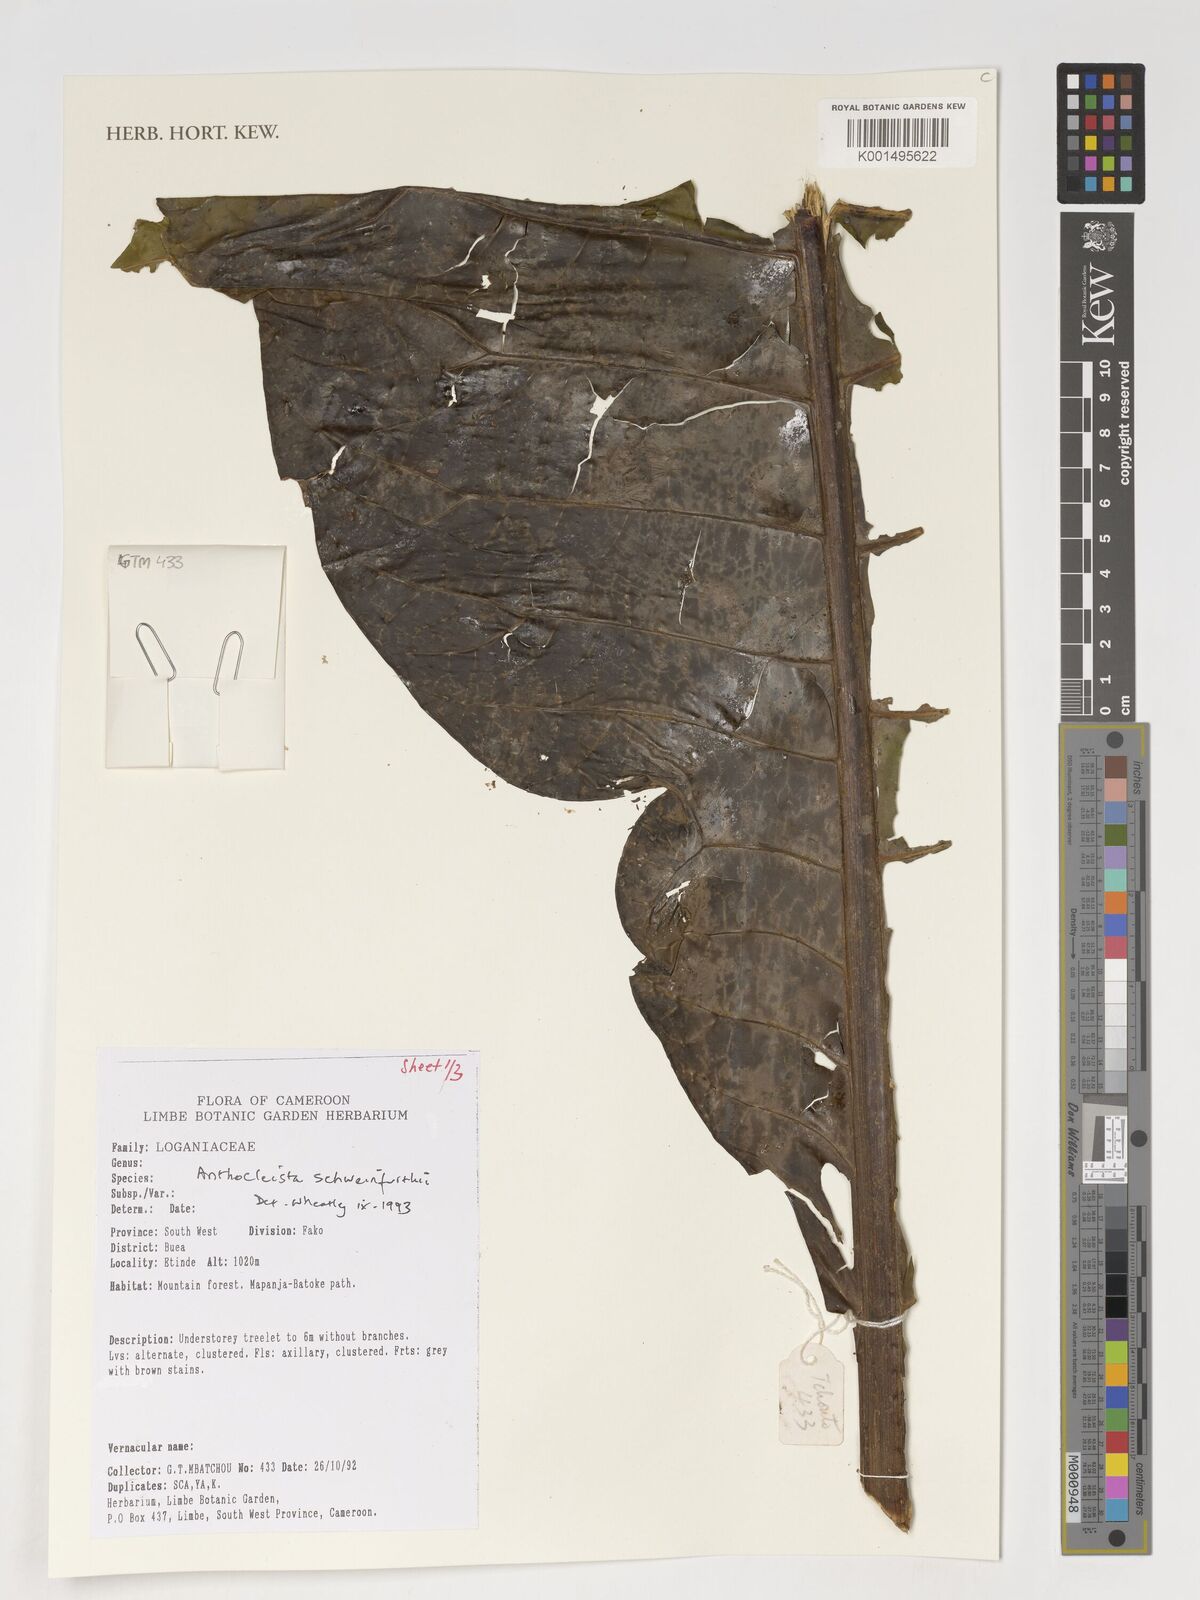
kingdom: Plantae
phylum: Tracheophyta
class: Magnoliopsida
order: Gentianales
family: Gentianaceae
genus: Anthocleista
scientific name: Anthocleista schweinfurthii
